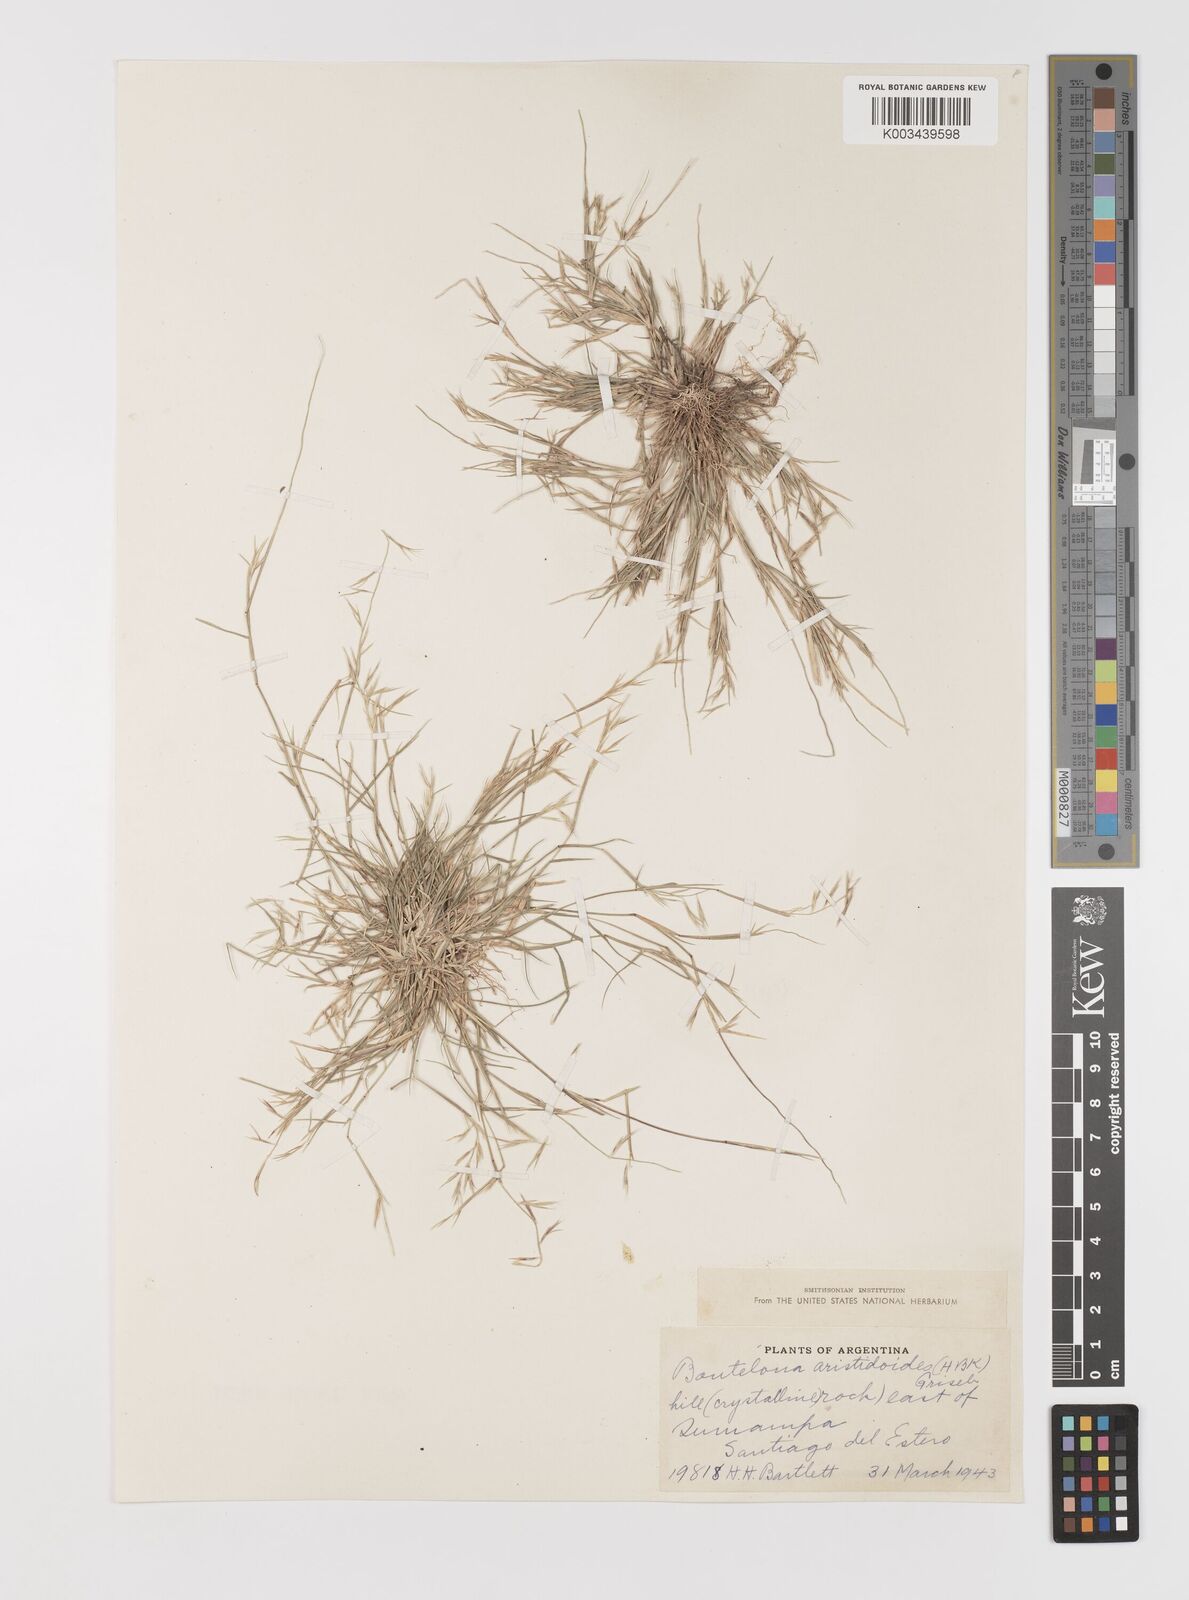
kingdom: Plantae
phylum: Tracheophyta
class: Liliopsida
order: Poales
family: Poaceae
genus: Bouteloua
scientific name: Bouteloua
